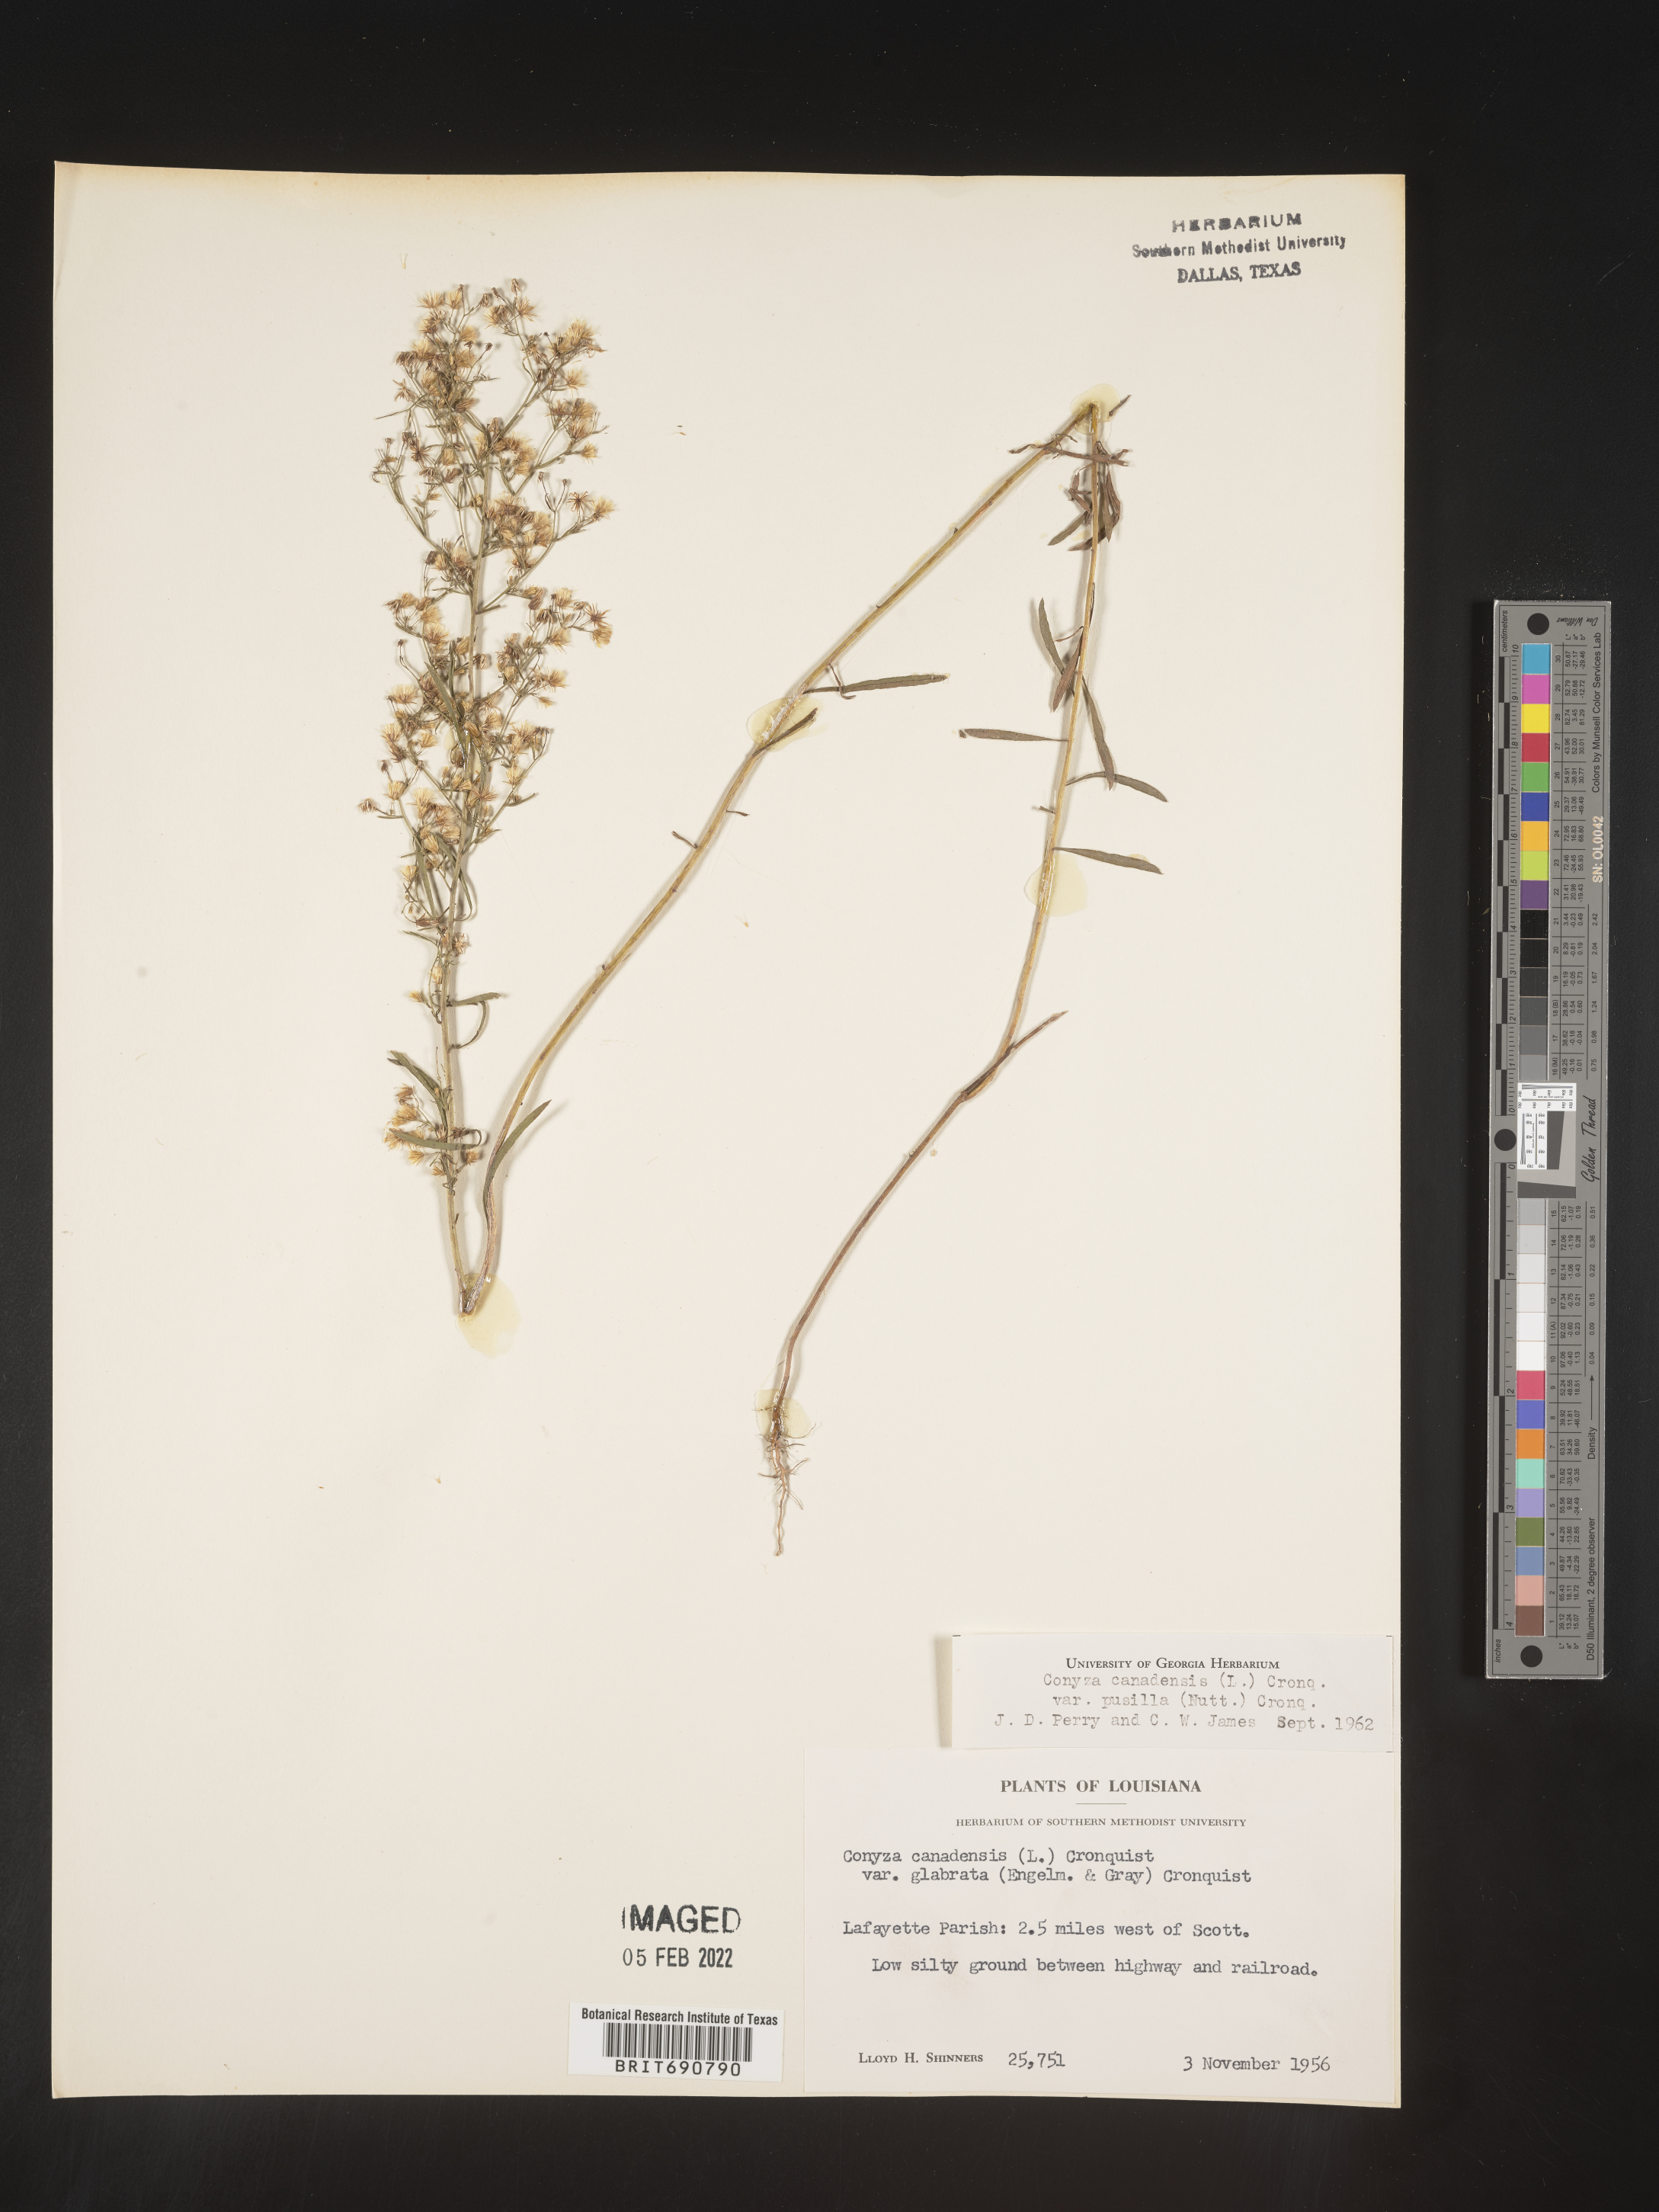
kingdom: Plantae
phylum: Tracheophyta
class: Magnoliopsida
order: Asterales
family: Asteraceae
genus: Erigeron
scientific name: Erigeron canadensis
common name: Canadian fleabane
